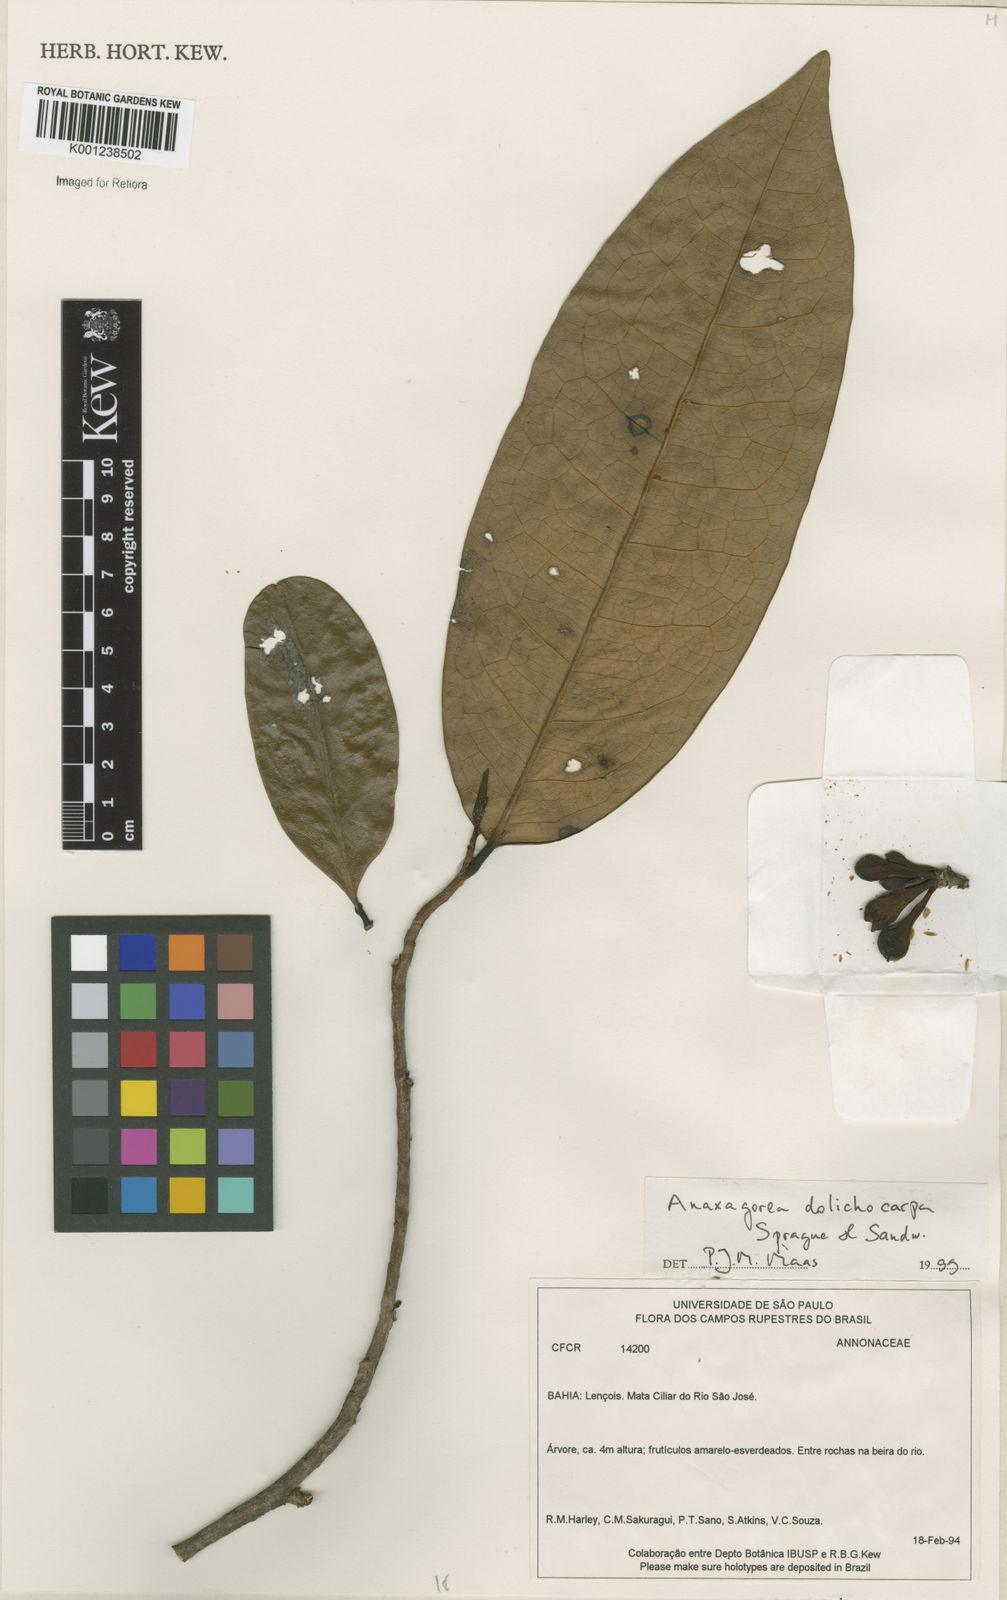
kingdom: Plantae
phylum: Tracheophyta
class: Magnoliopsida
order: Magnoliales
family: Annonaceae
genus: Anaxagorea
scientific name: Anaxagorea dolichocarpa
